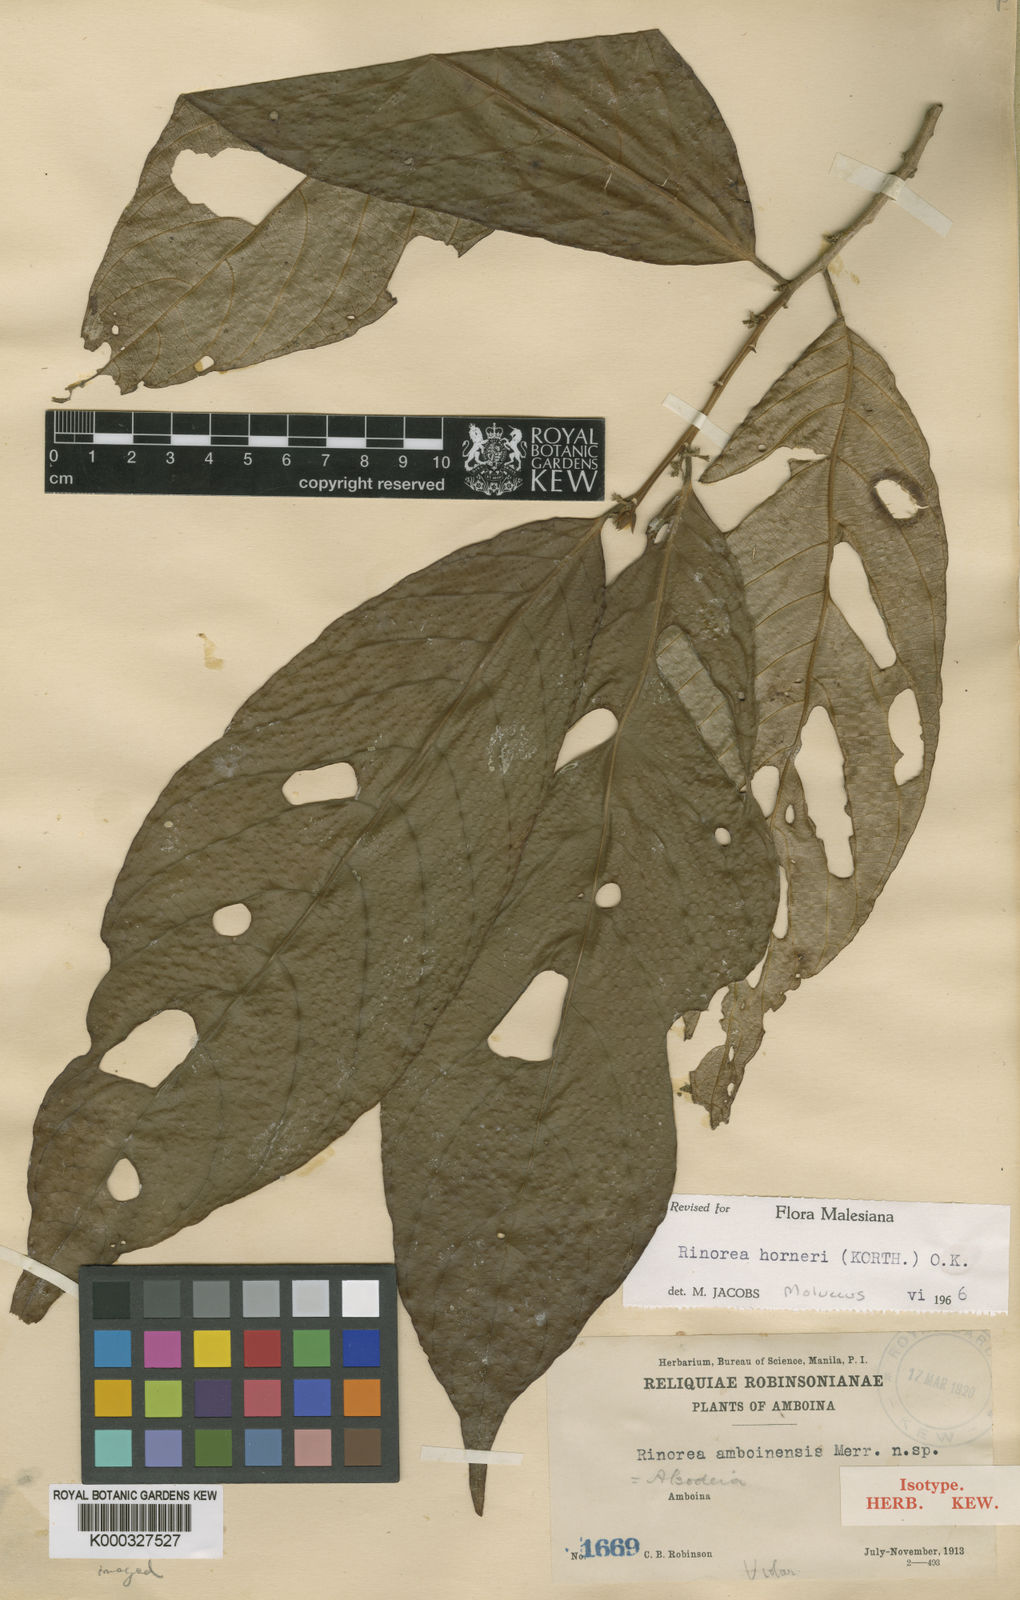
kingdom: Plantae
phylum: Tracheophyta
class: Magnoliopsida
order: Malpighiales
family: Violaceae
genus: Rinorea
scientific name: Rinorea horneri
